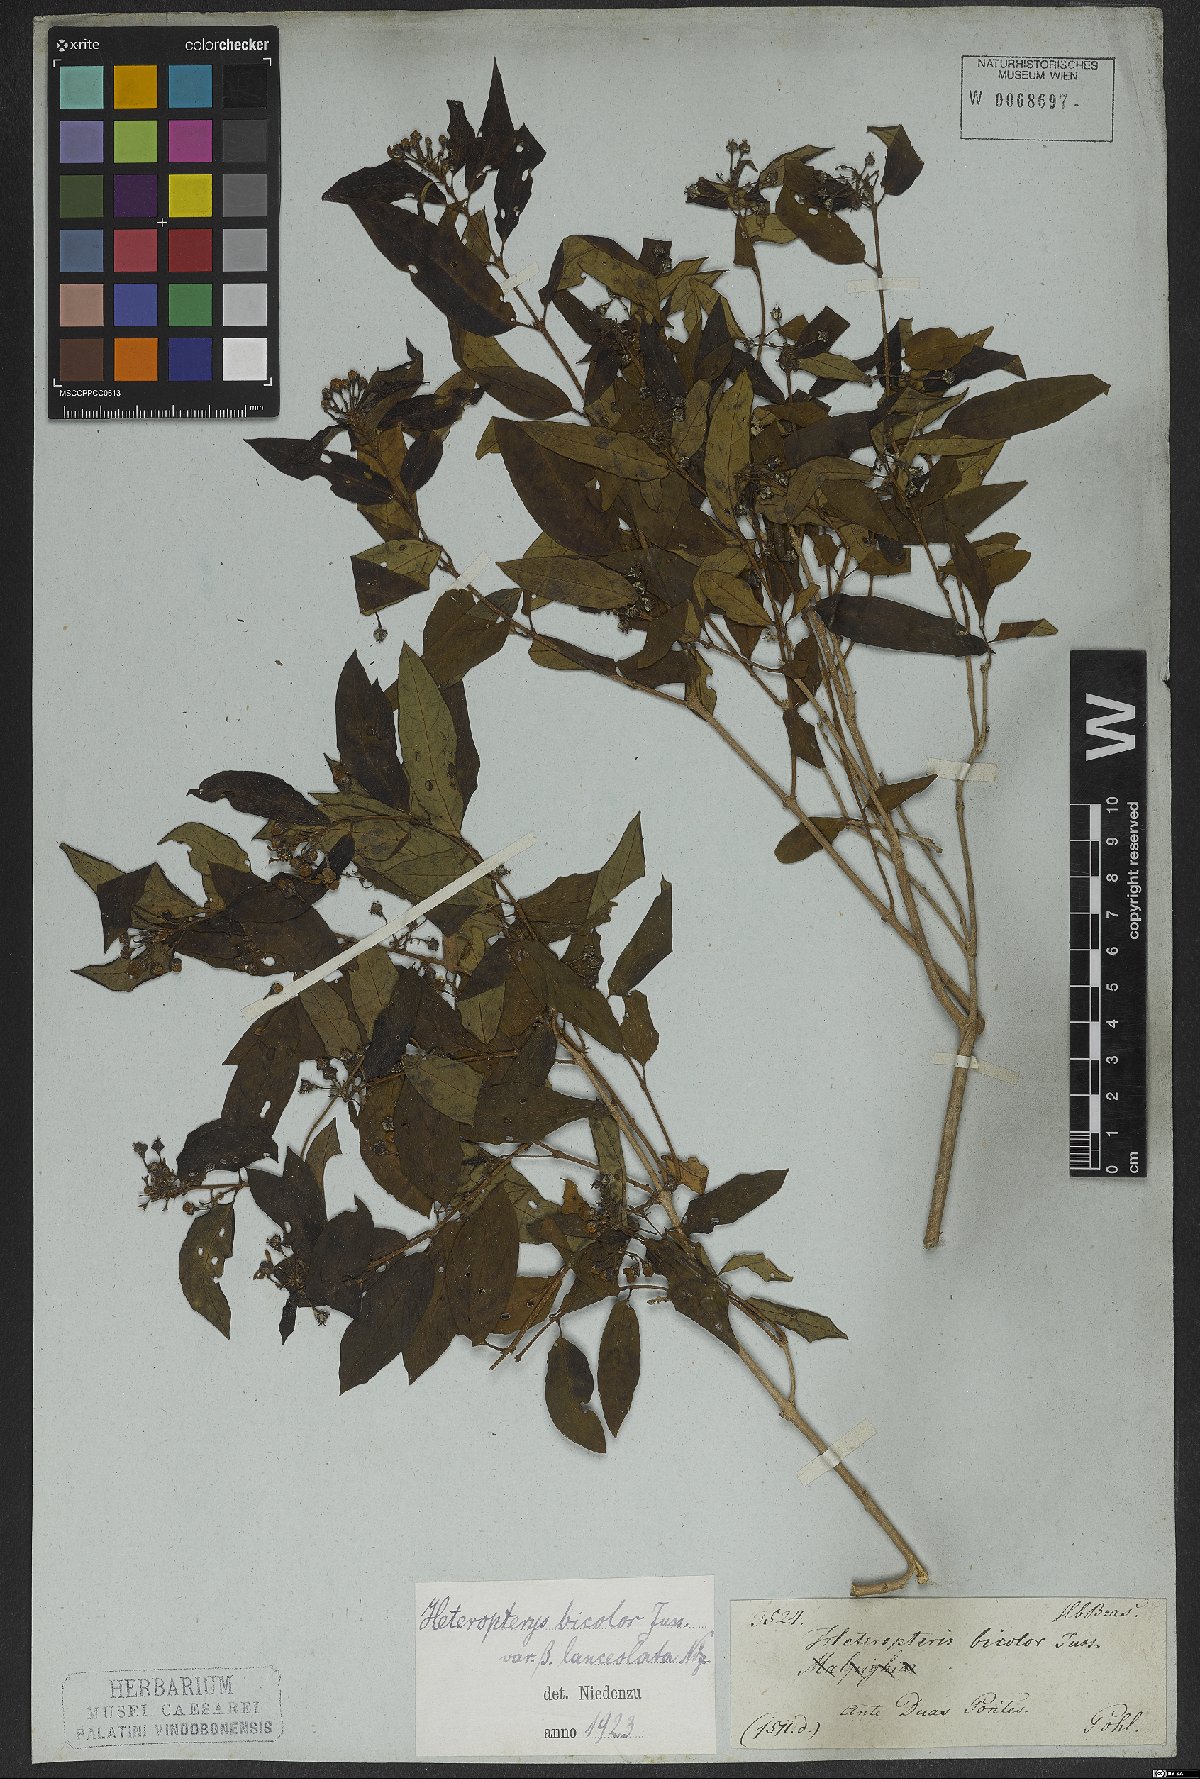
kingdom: Plantae
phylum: Tracheophyta
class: Magnoliopsida
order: Malpighiales
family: Malpighiaceae
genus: Heteropterys
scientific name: Heteropterys bicolor
